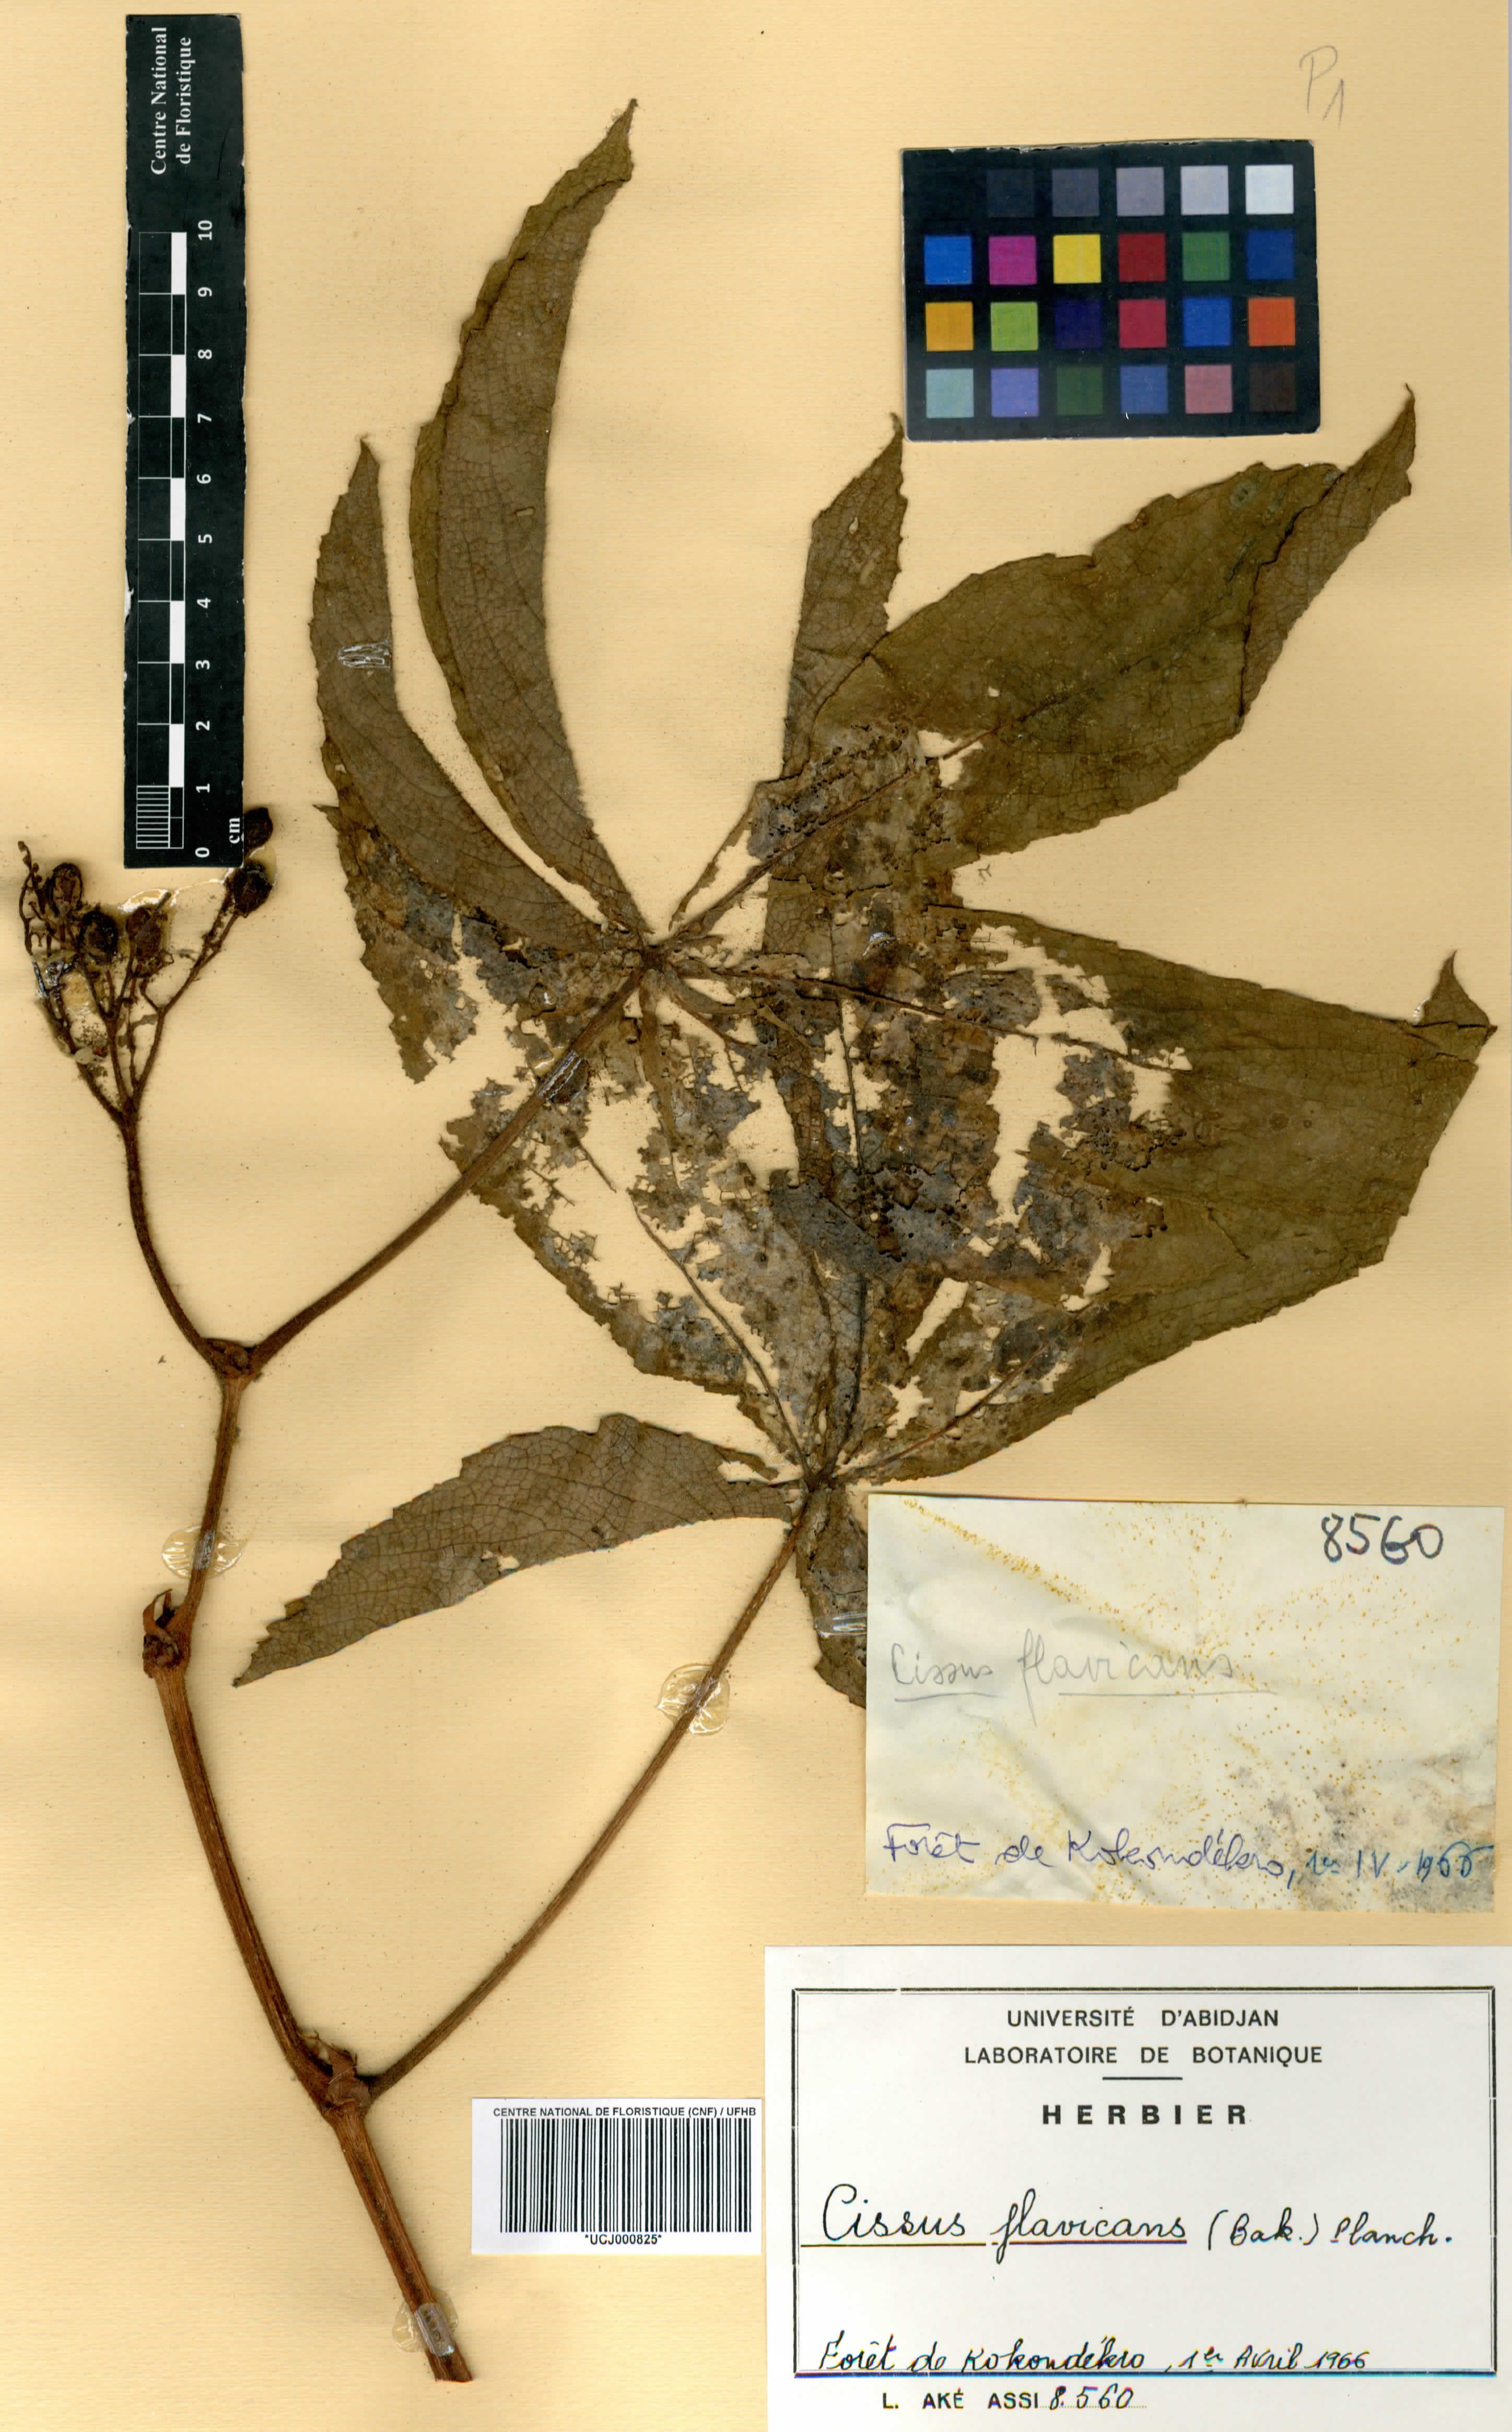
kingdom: Plantae
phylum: Tracheophyta
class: Magnoliopsida
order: Vitales
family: Vitaceae
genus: Cissus
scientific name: Cissus doeringii
